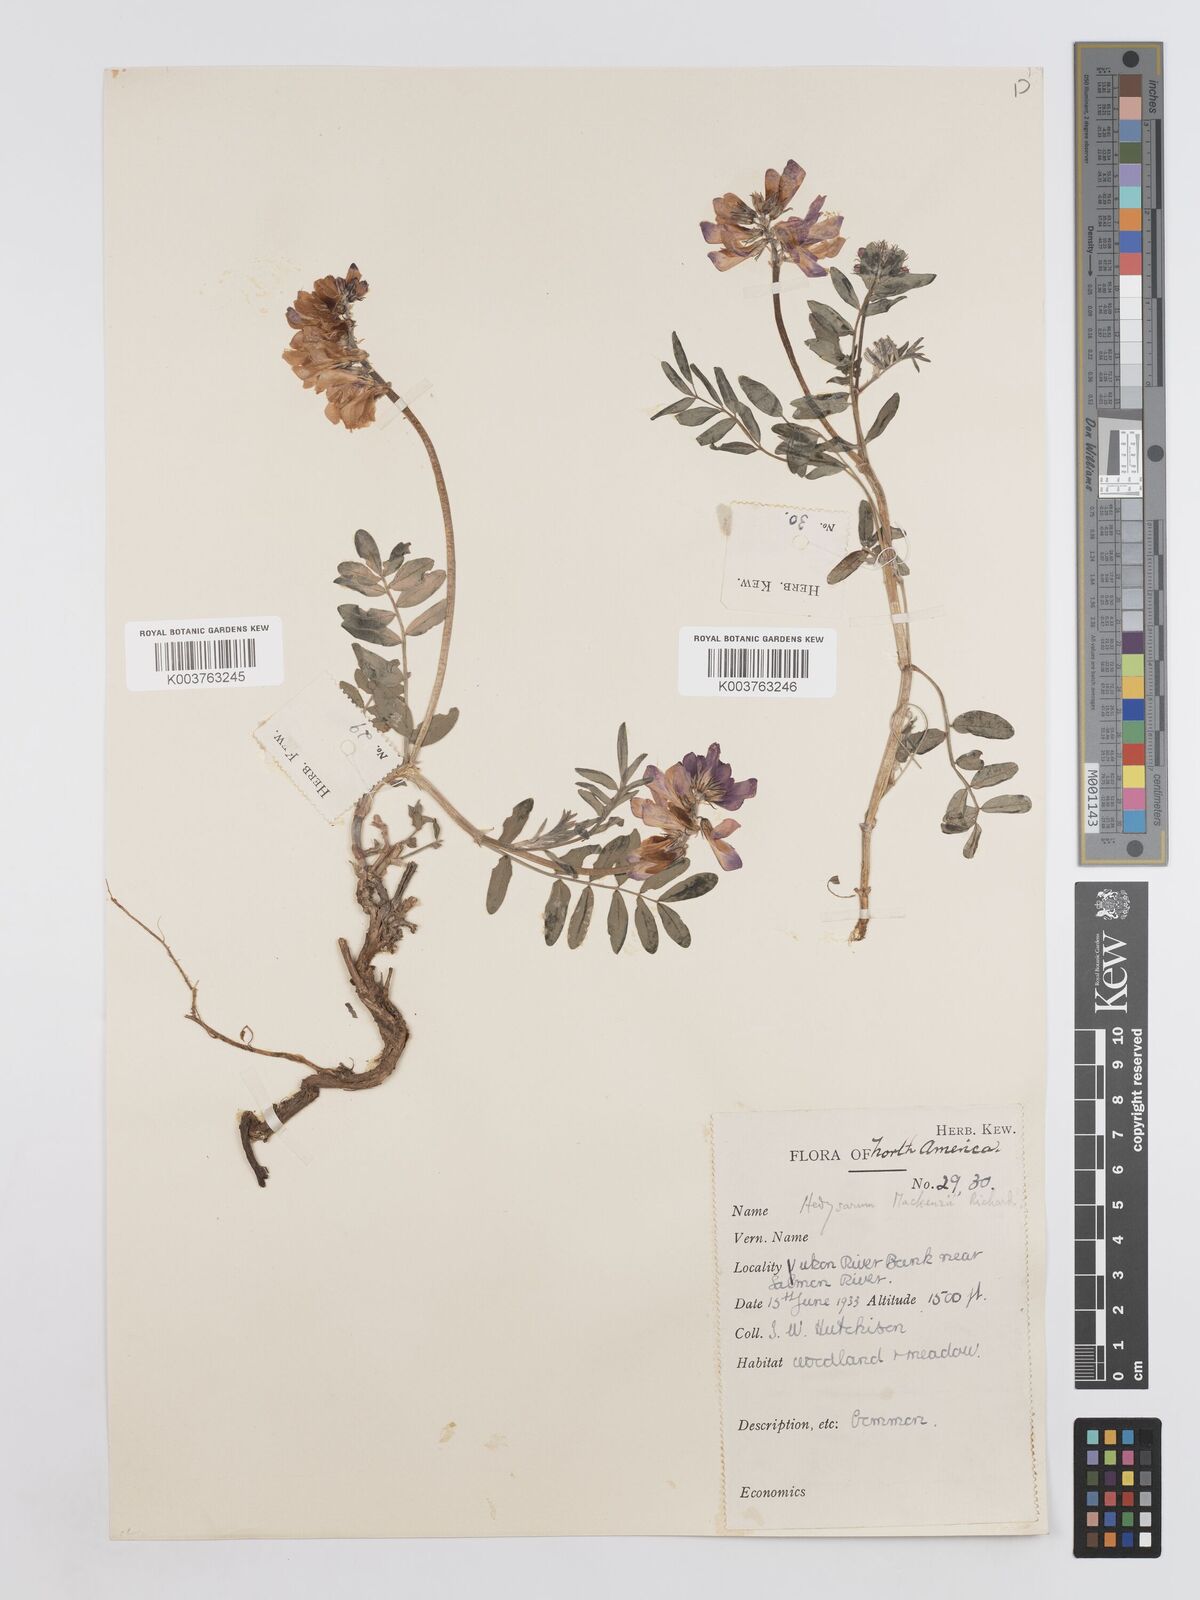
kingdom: Plantae
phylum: Tracheophyta
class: Magnoliopsida
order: Fabales
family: Fabaceae
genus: Hedysarum
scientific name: Hedysarum boreale
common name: Northern sweet-vetch
